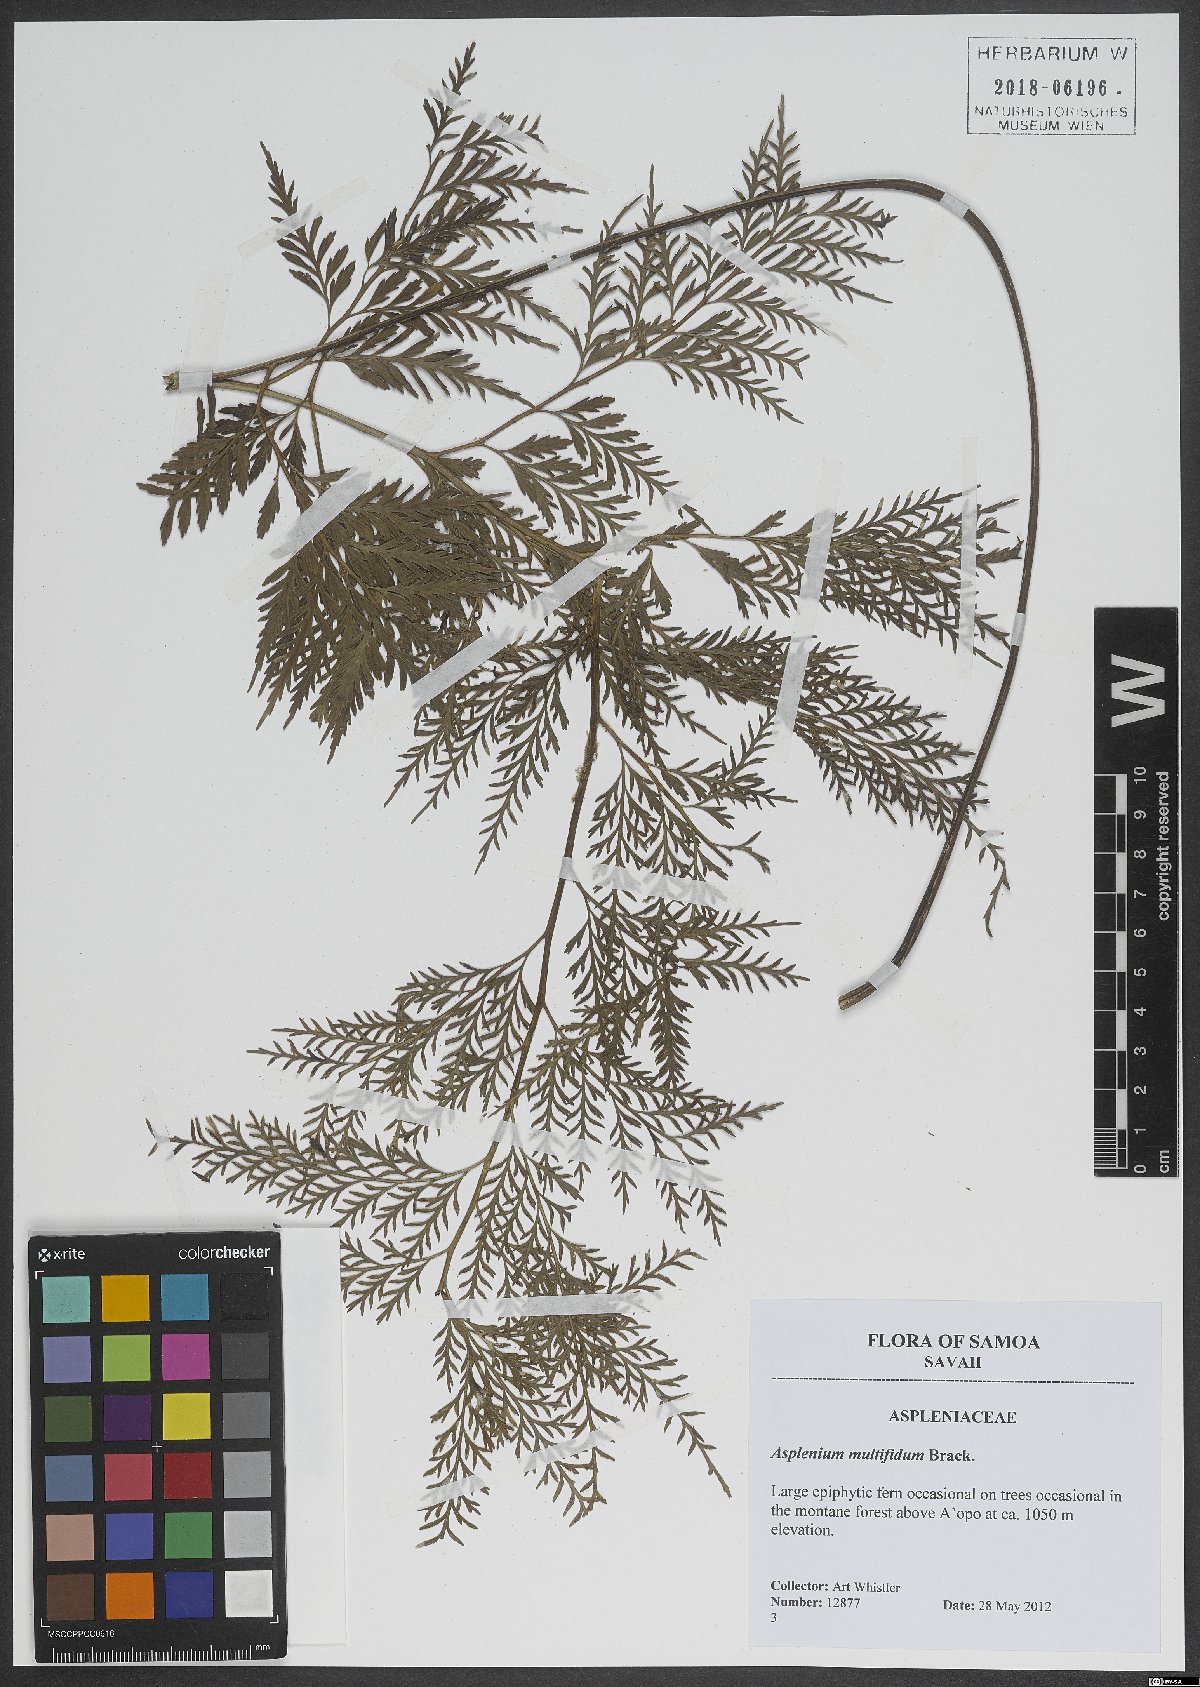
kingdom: Plantae
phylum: Tracheophyta
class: Polypodiopsida
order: Polypodiales
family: Aspleniaceae
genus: Asplenium
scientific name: Asplenium shuttleworthianum
